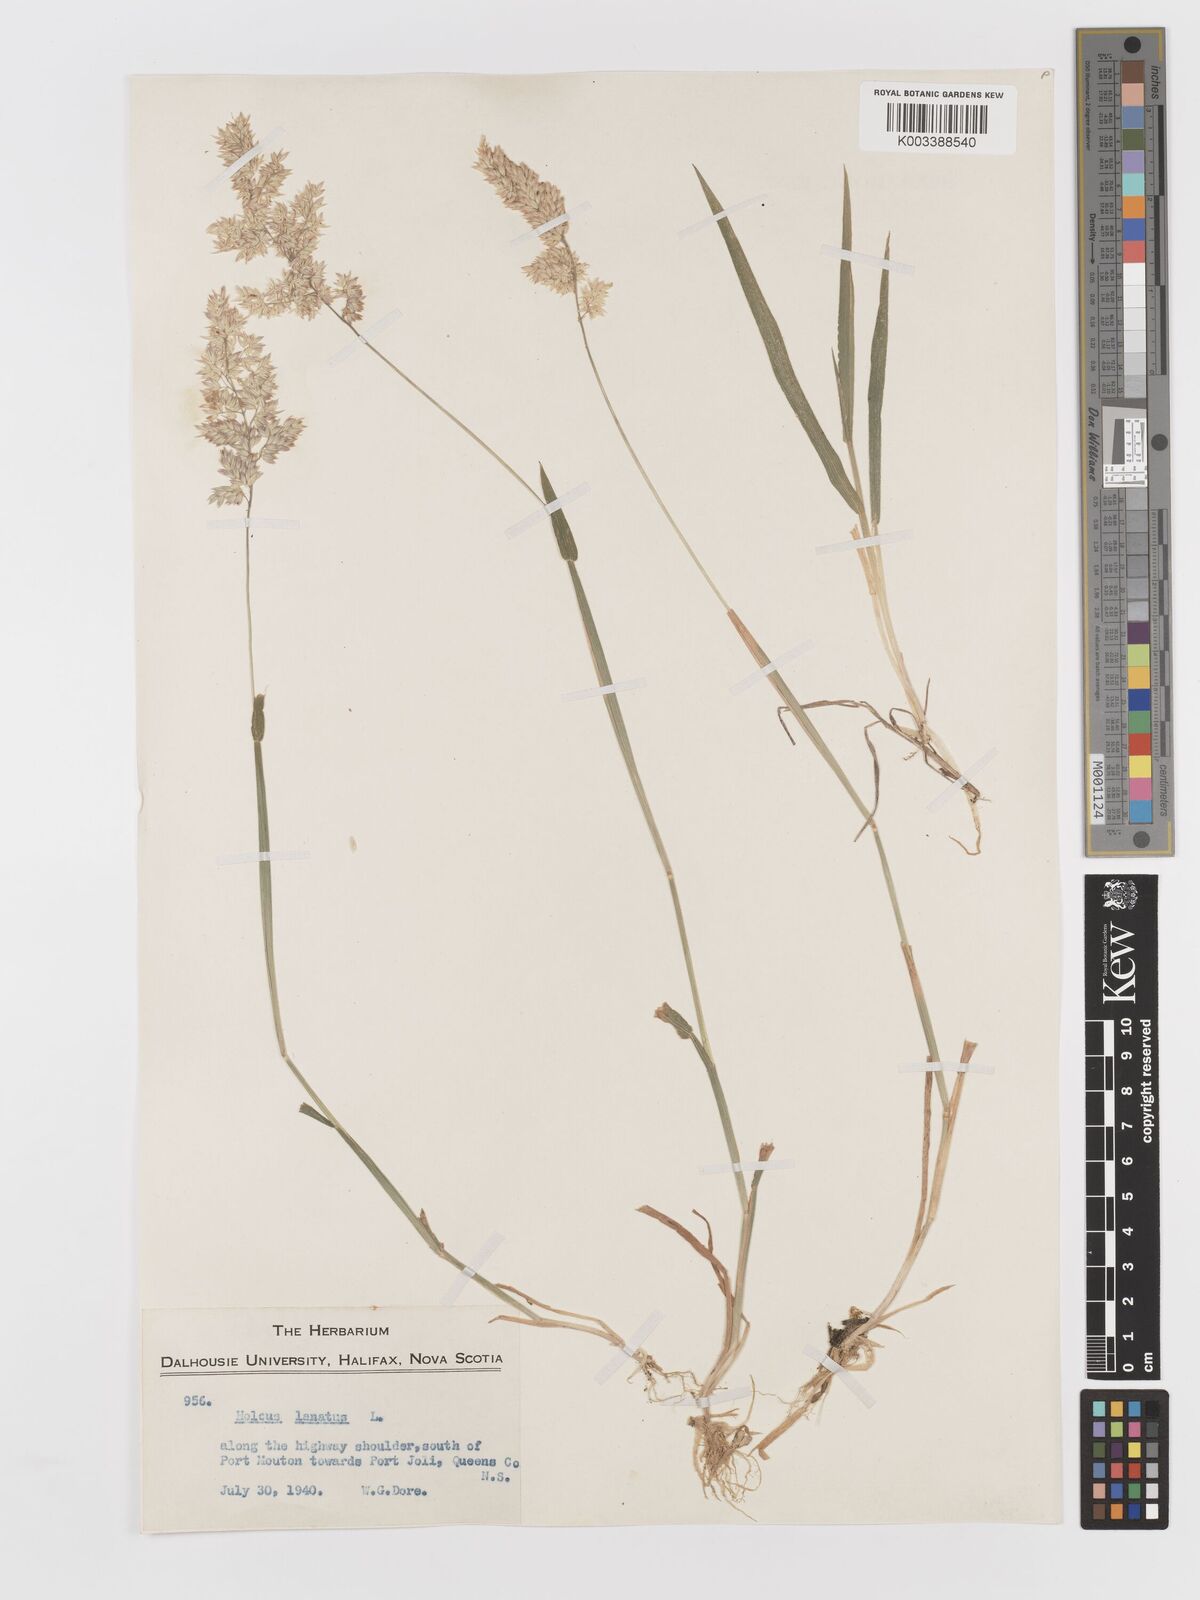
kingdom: Plantae
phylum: Tracheophyta
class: Liliopsida
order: Poales
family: Poaceae
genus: Holcus
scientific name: Holcus lanatus
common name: Yorkshire-fog
